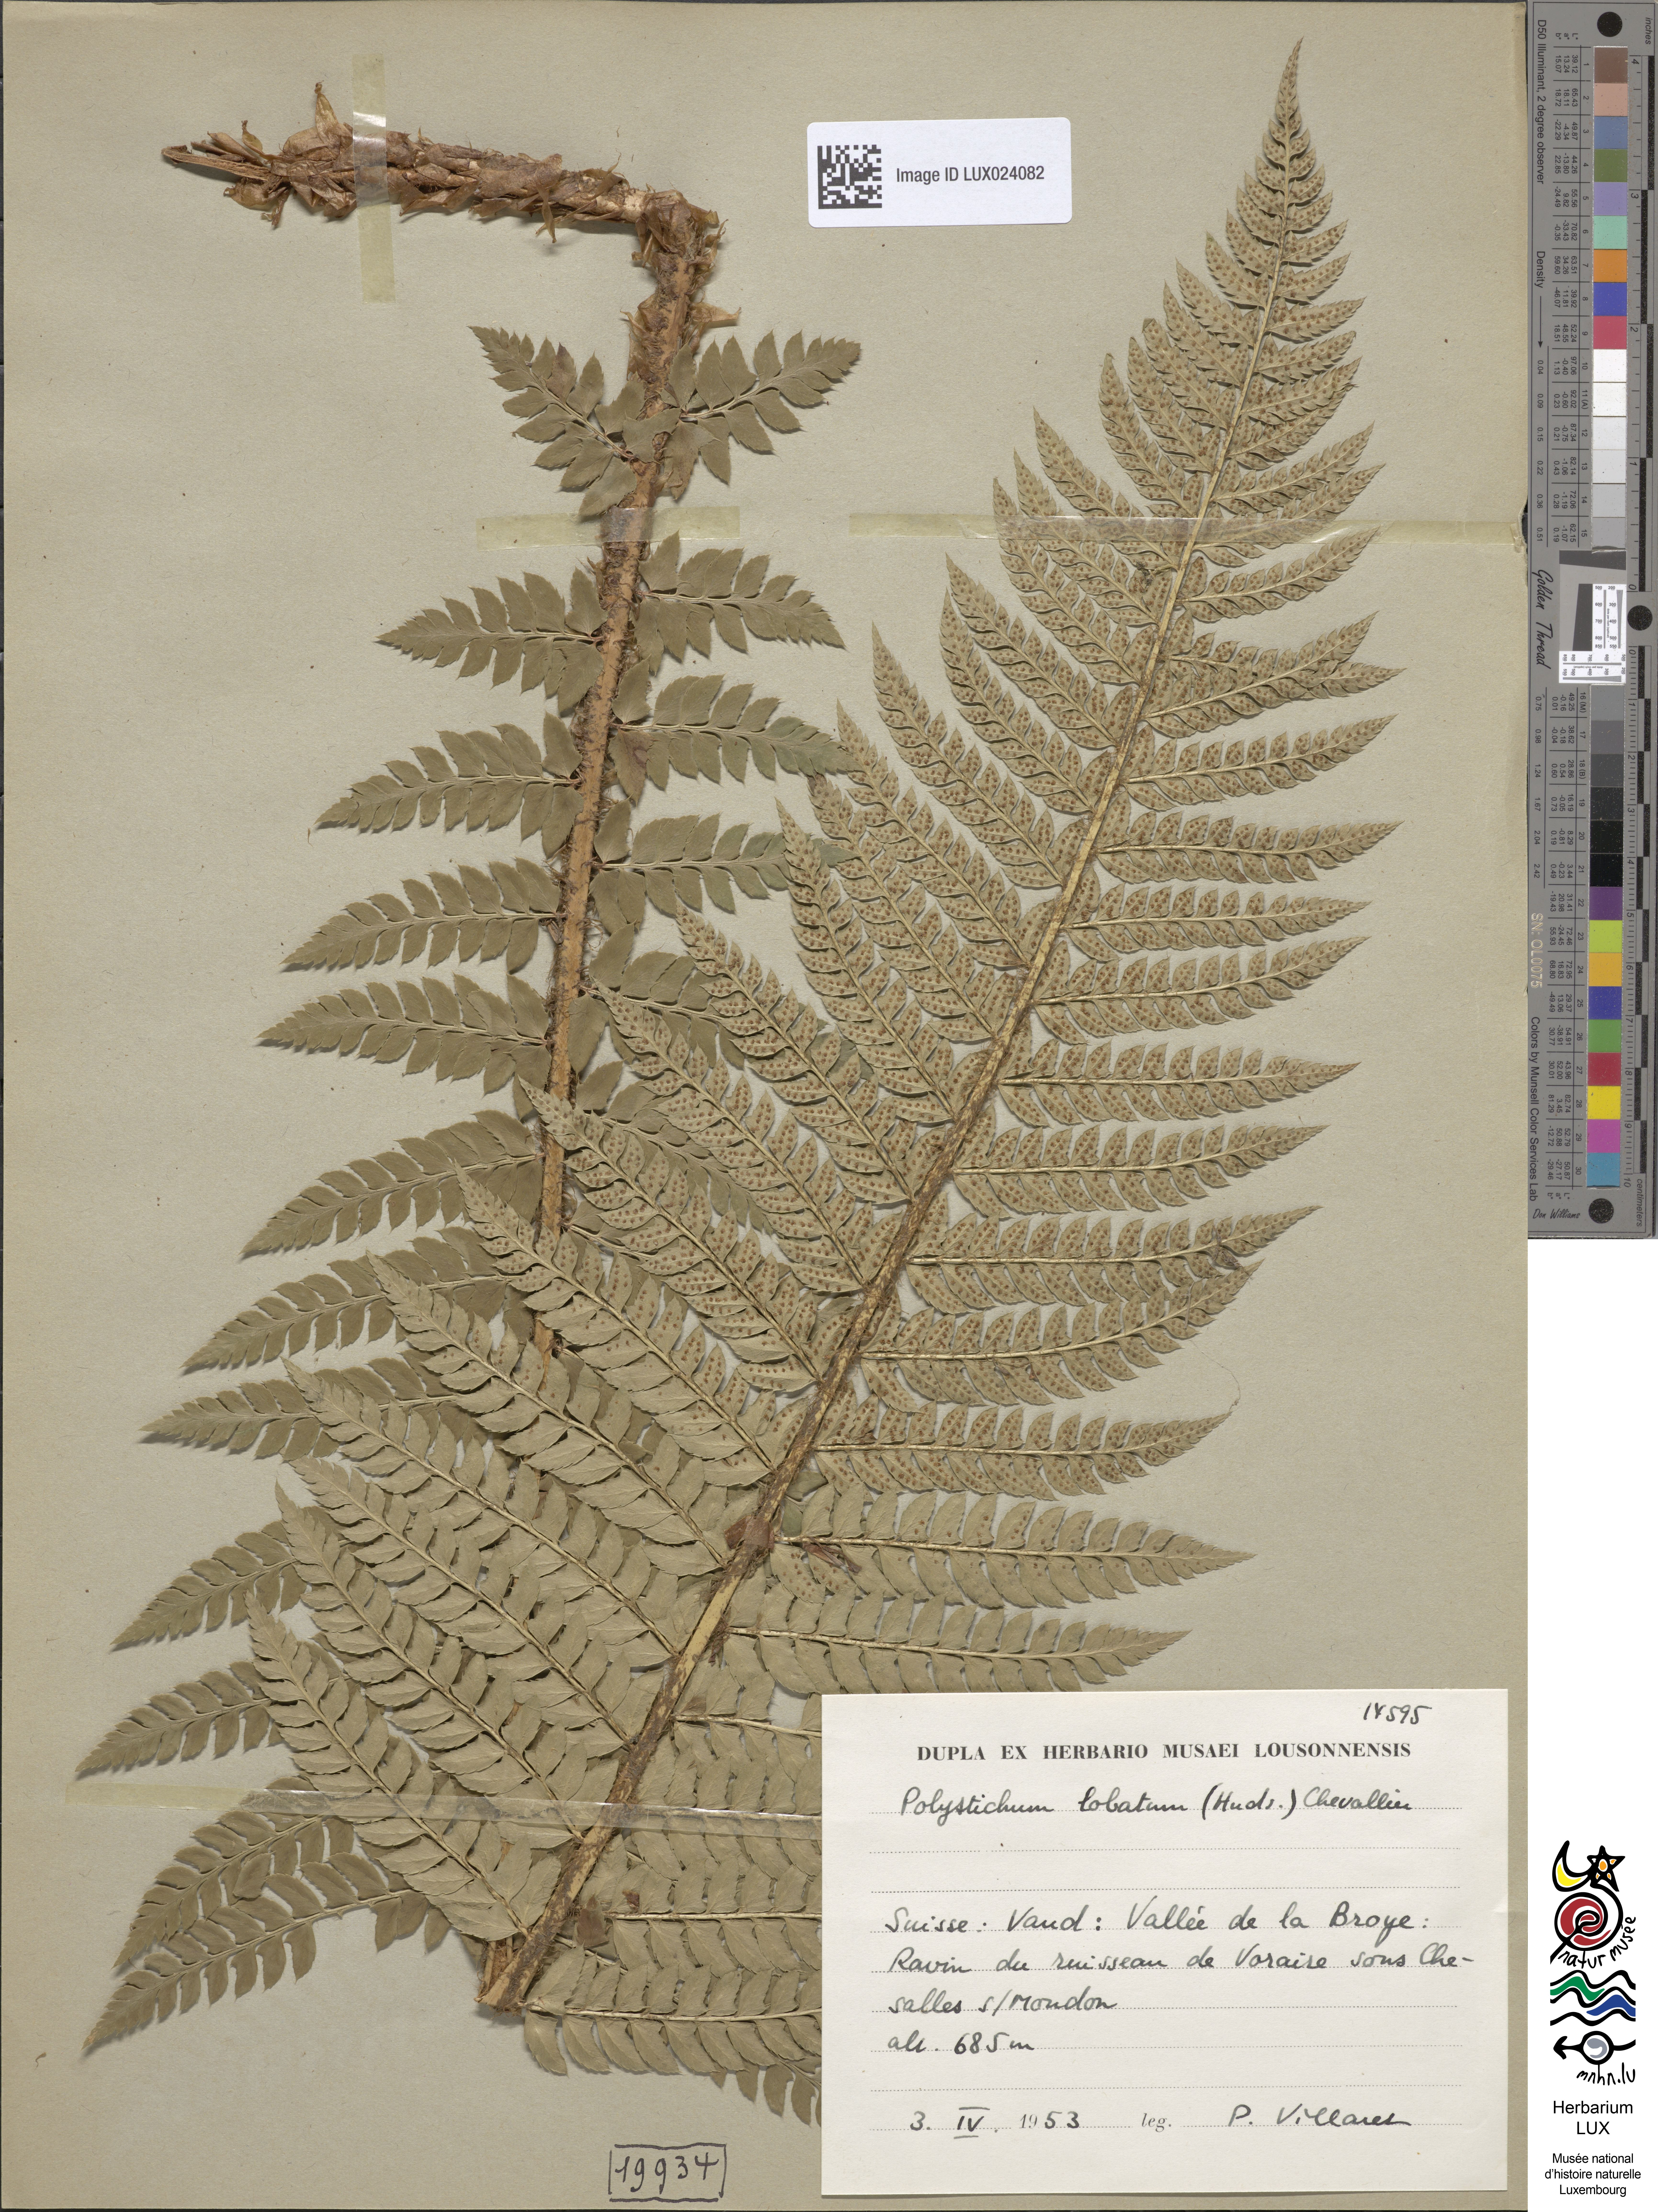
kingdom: Plantae
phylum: Tracheophyta
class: Polypodiopsida
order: Polypodiales
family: Dryopteridaceae
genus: Polystichum
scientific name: Polystichum aculeatum
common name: Hard shield-fern
